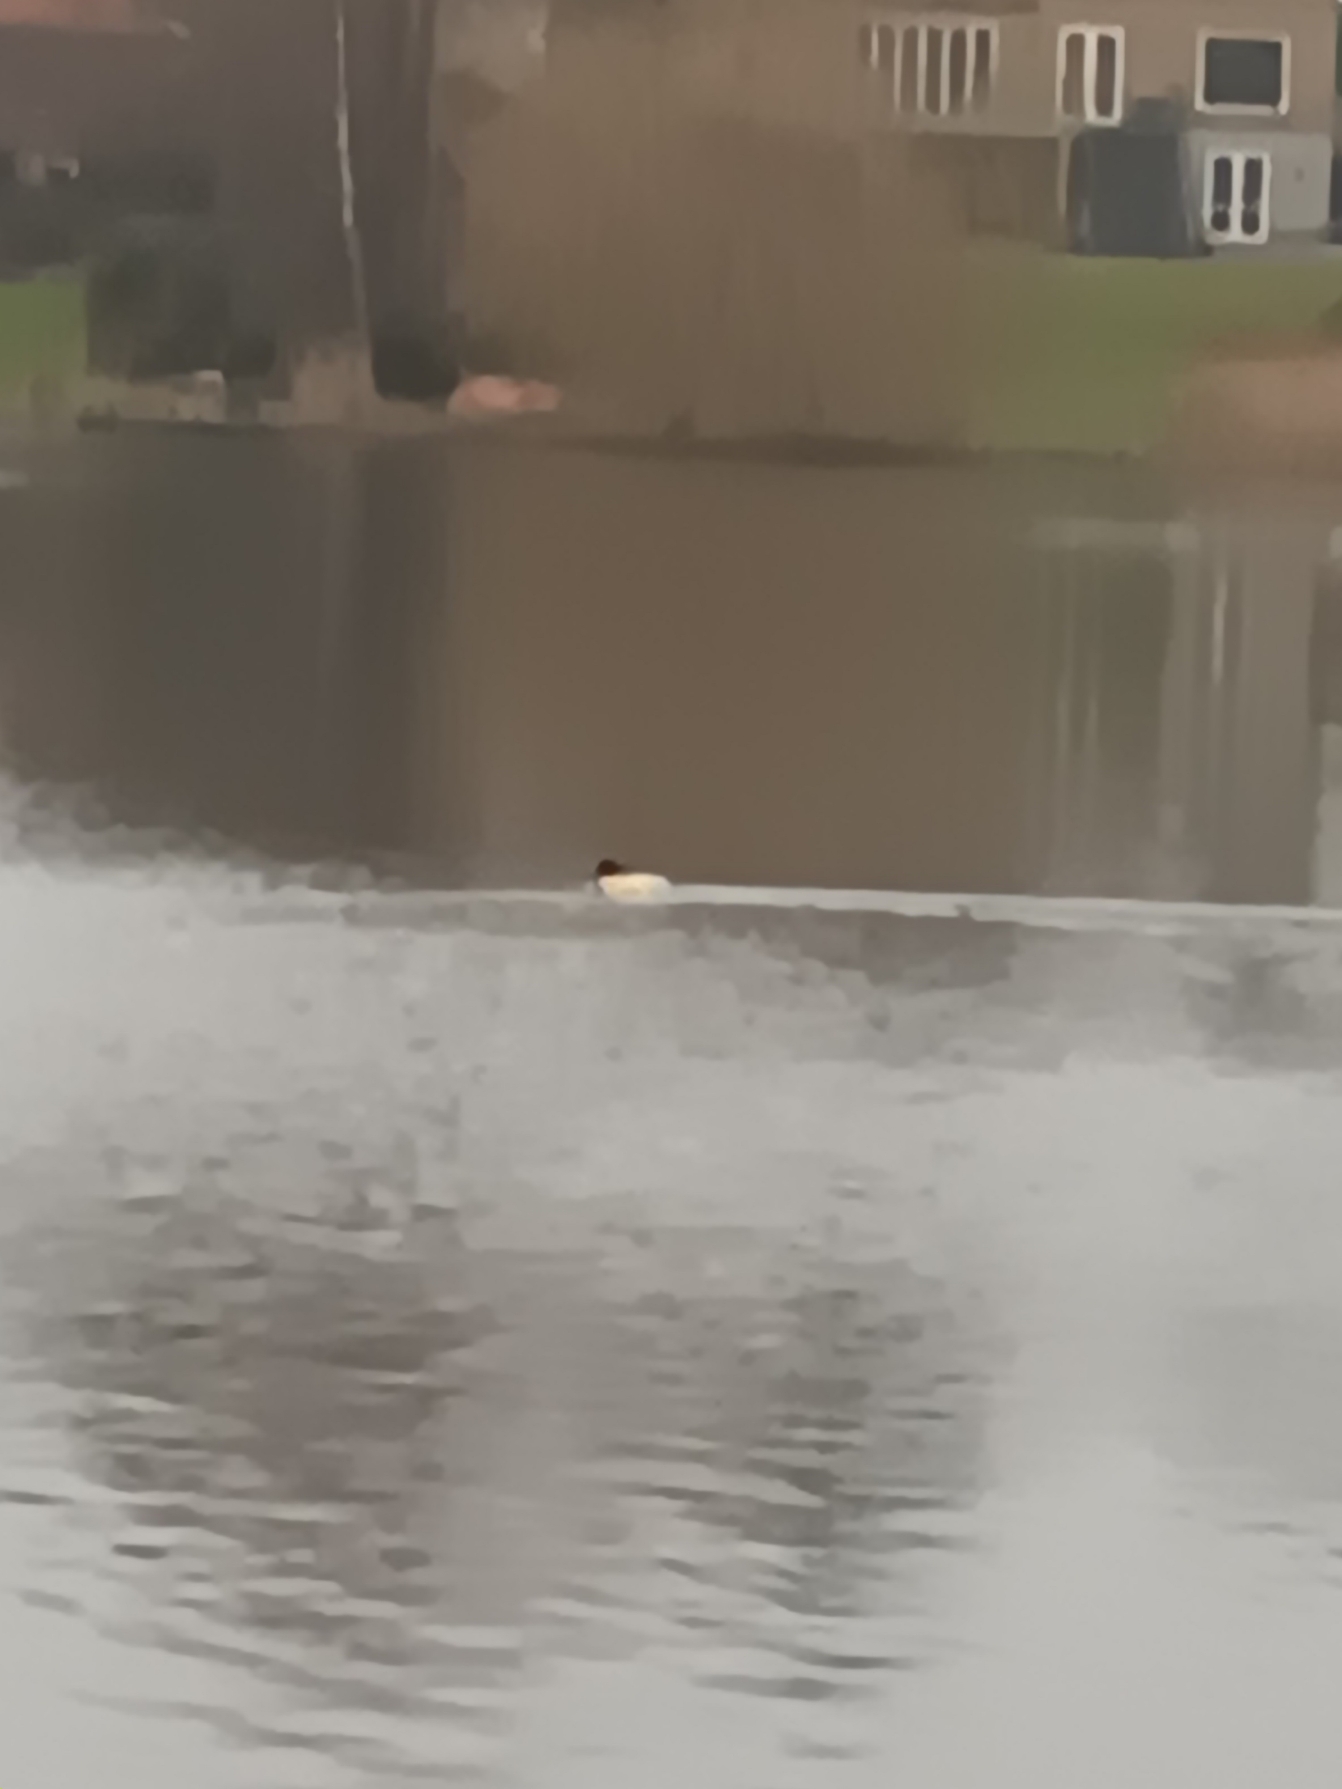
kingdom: Animalia
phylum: Chordata
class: Aves
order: Anseriformes
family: Anatidae
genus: Mergus
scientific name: Mergus merganser
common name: Stor skallesluger
